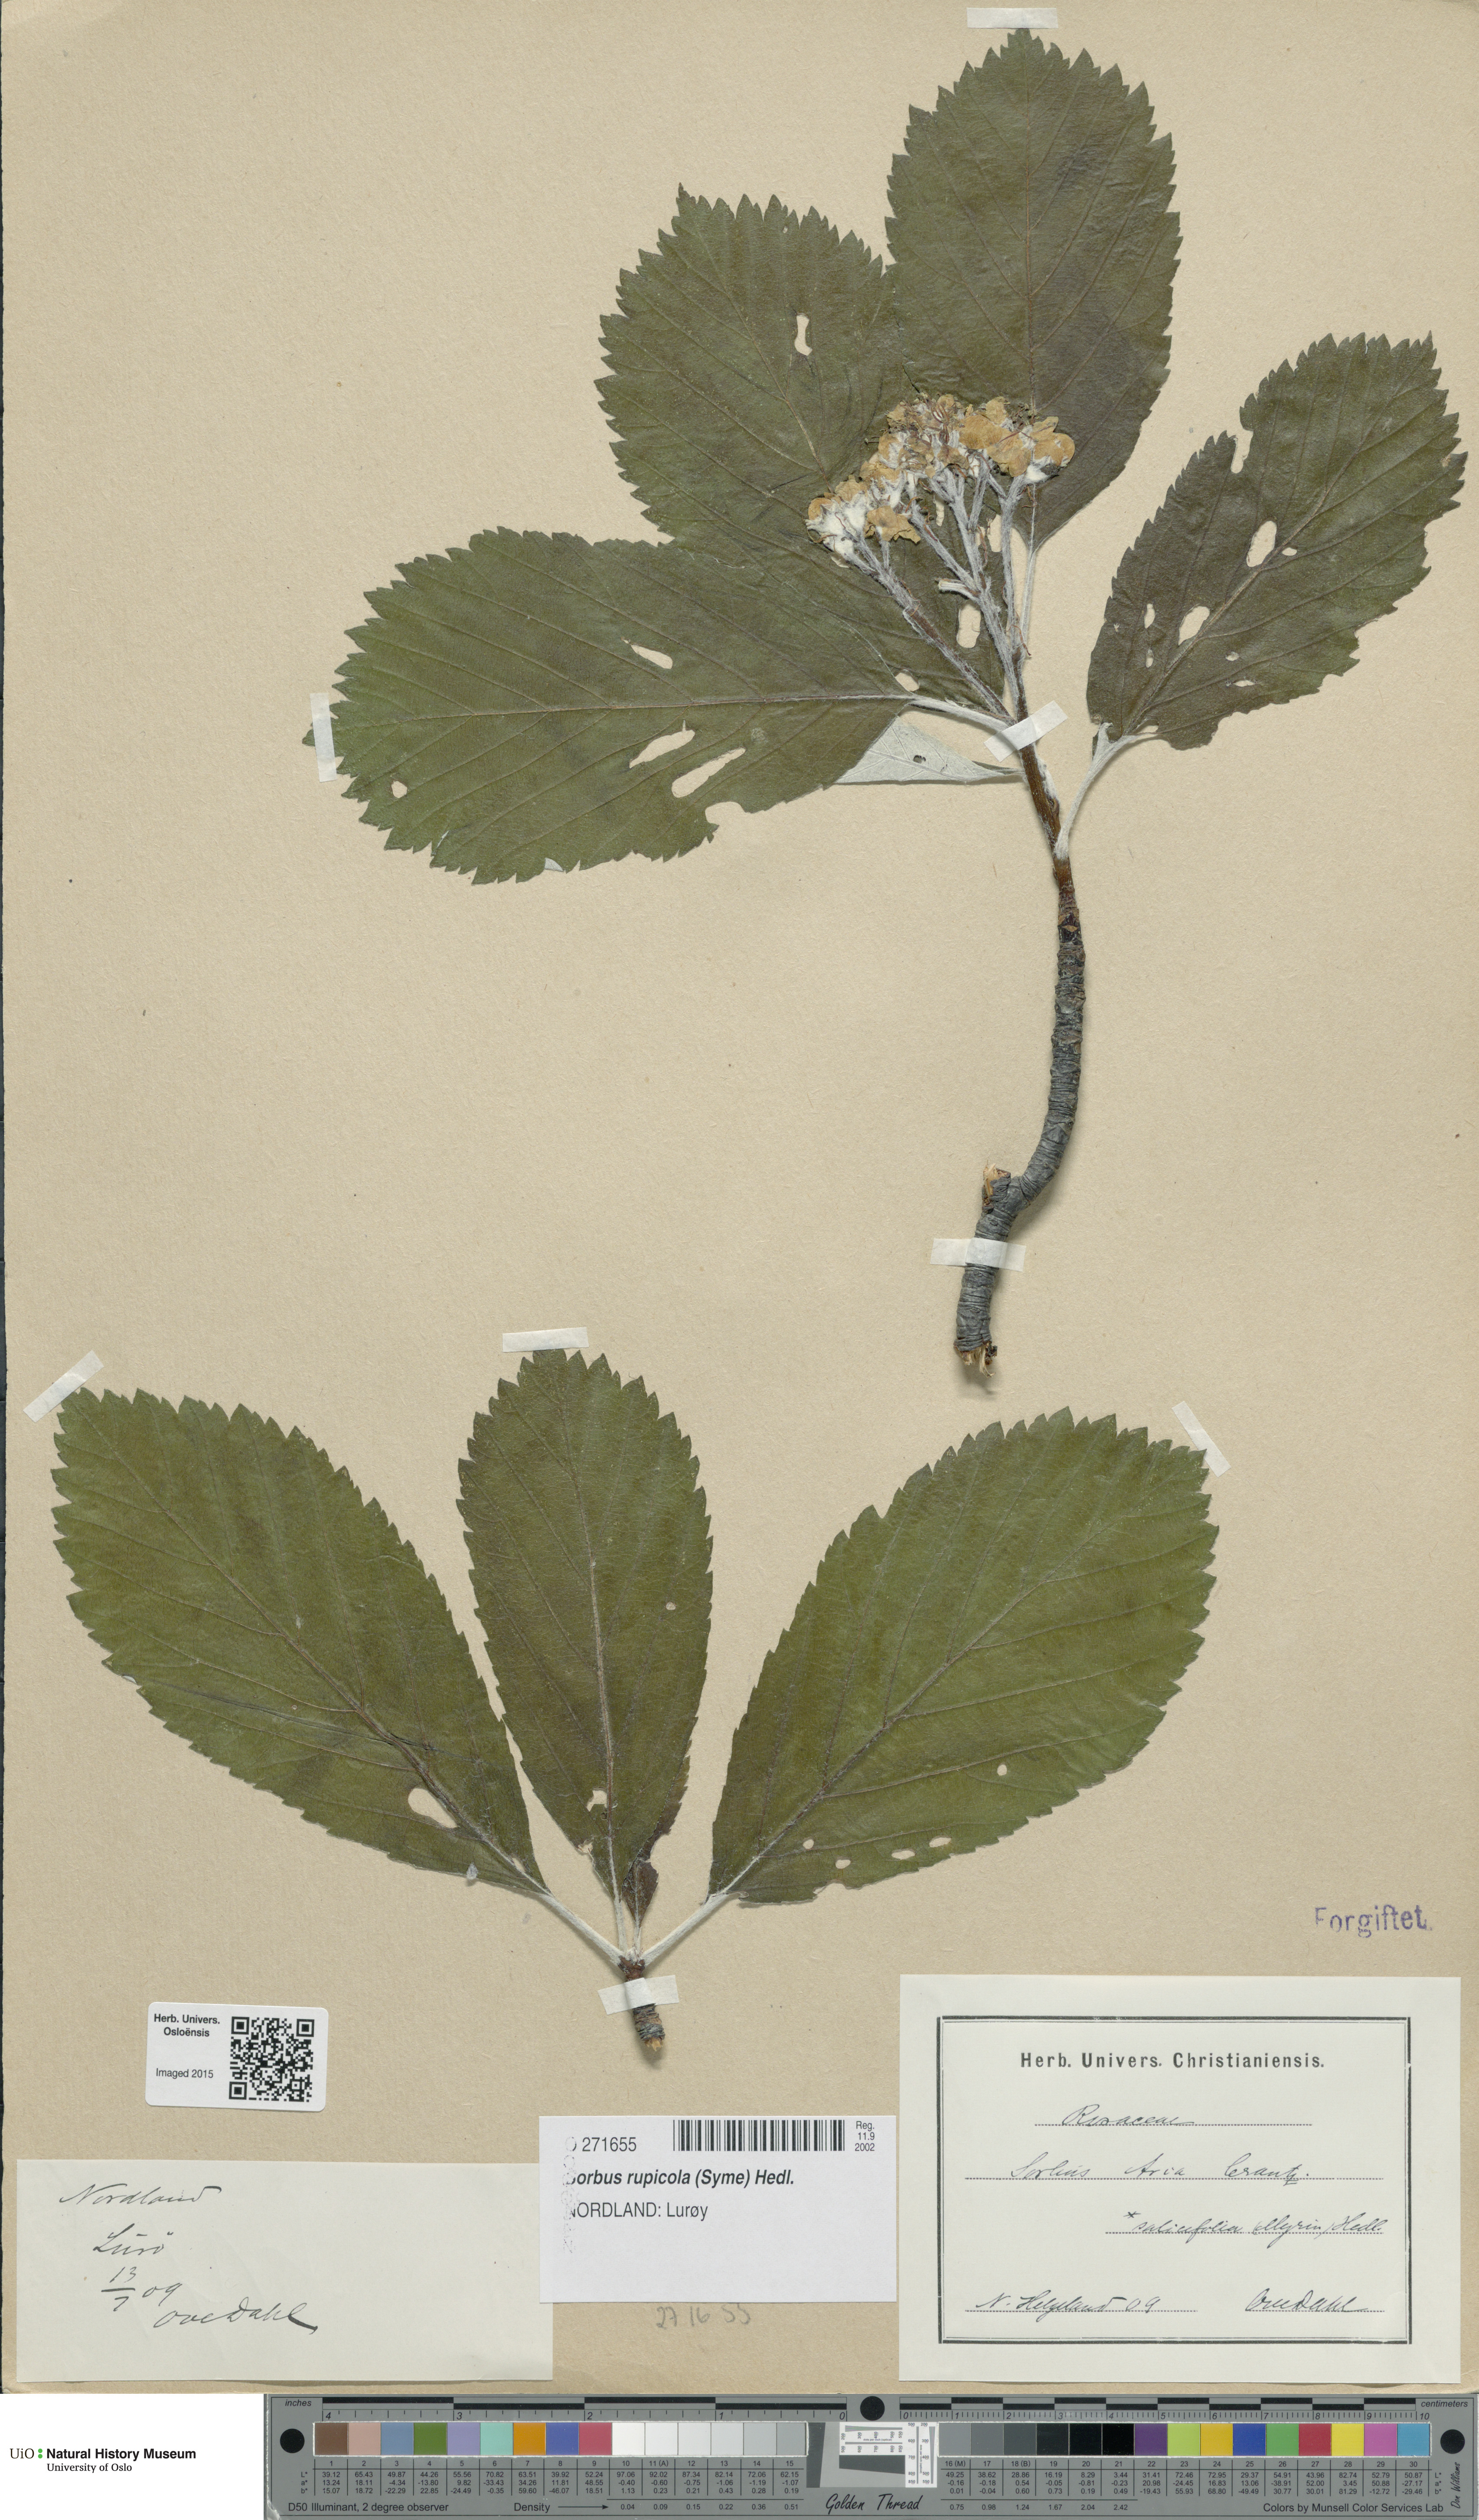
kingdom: Plantae
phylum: Tracheophyta
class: Magnoliopsida
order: Rosales
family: Rosaceae
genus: Aria
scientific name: Aria rupicola
